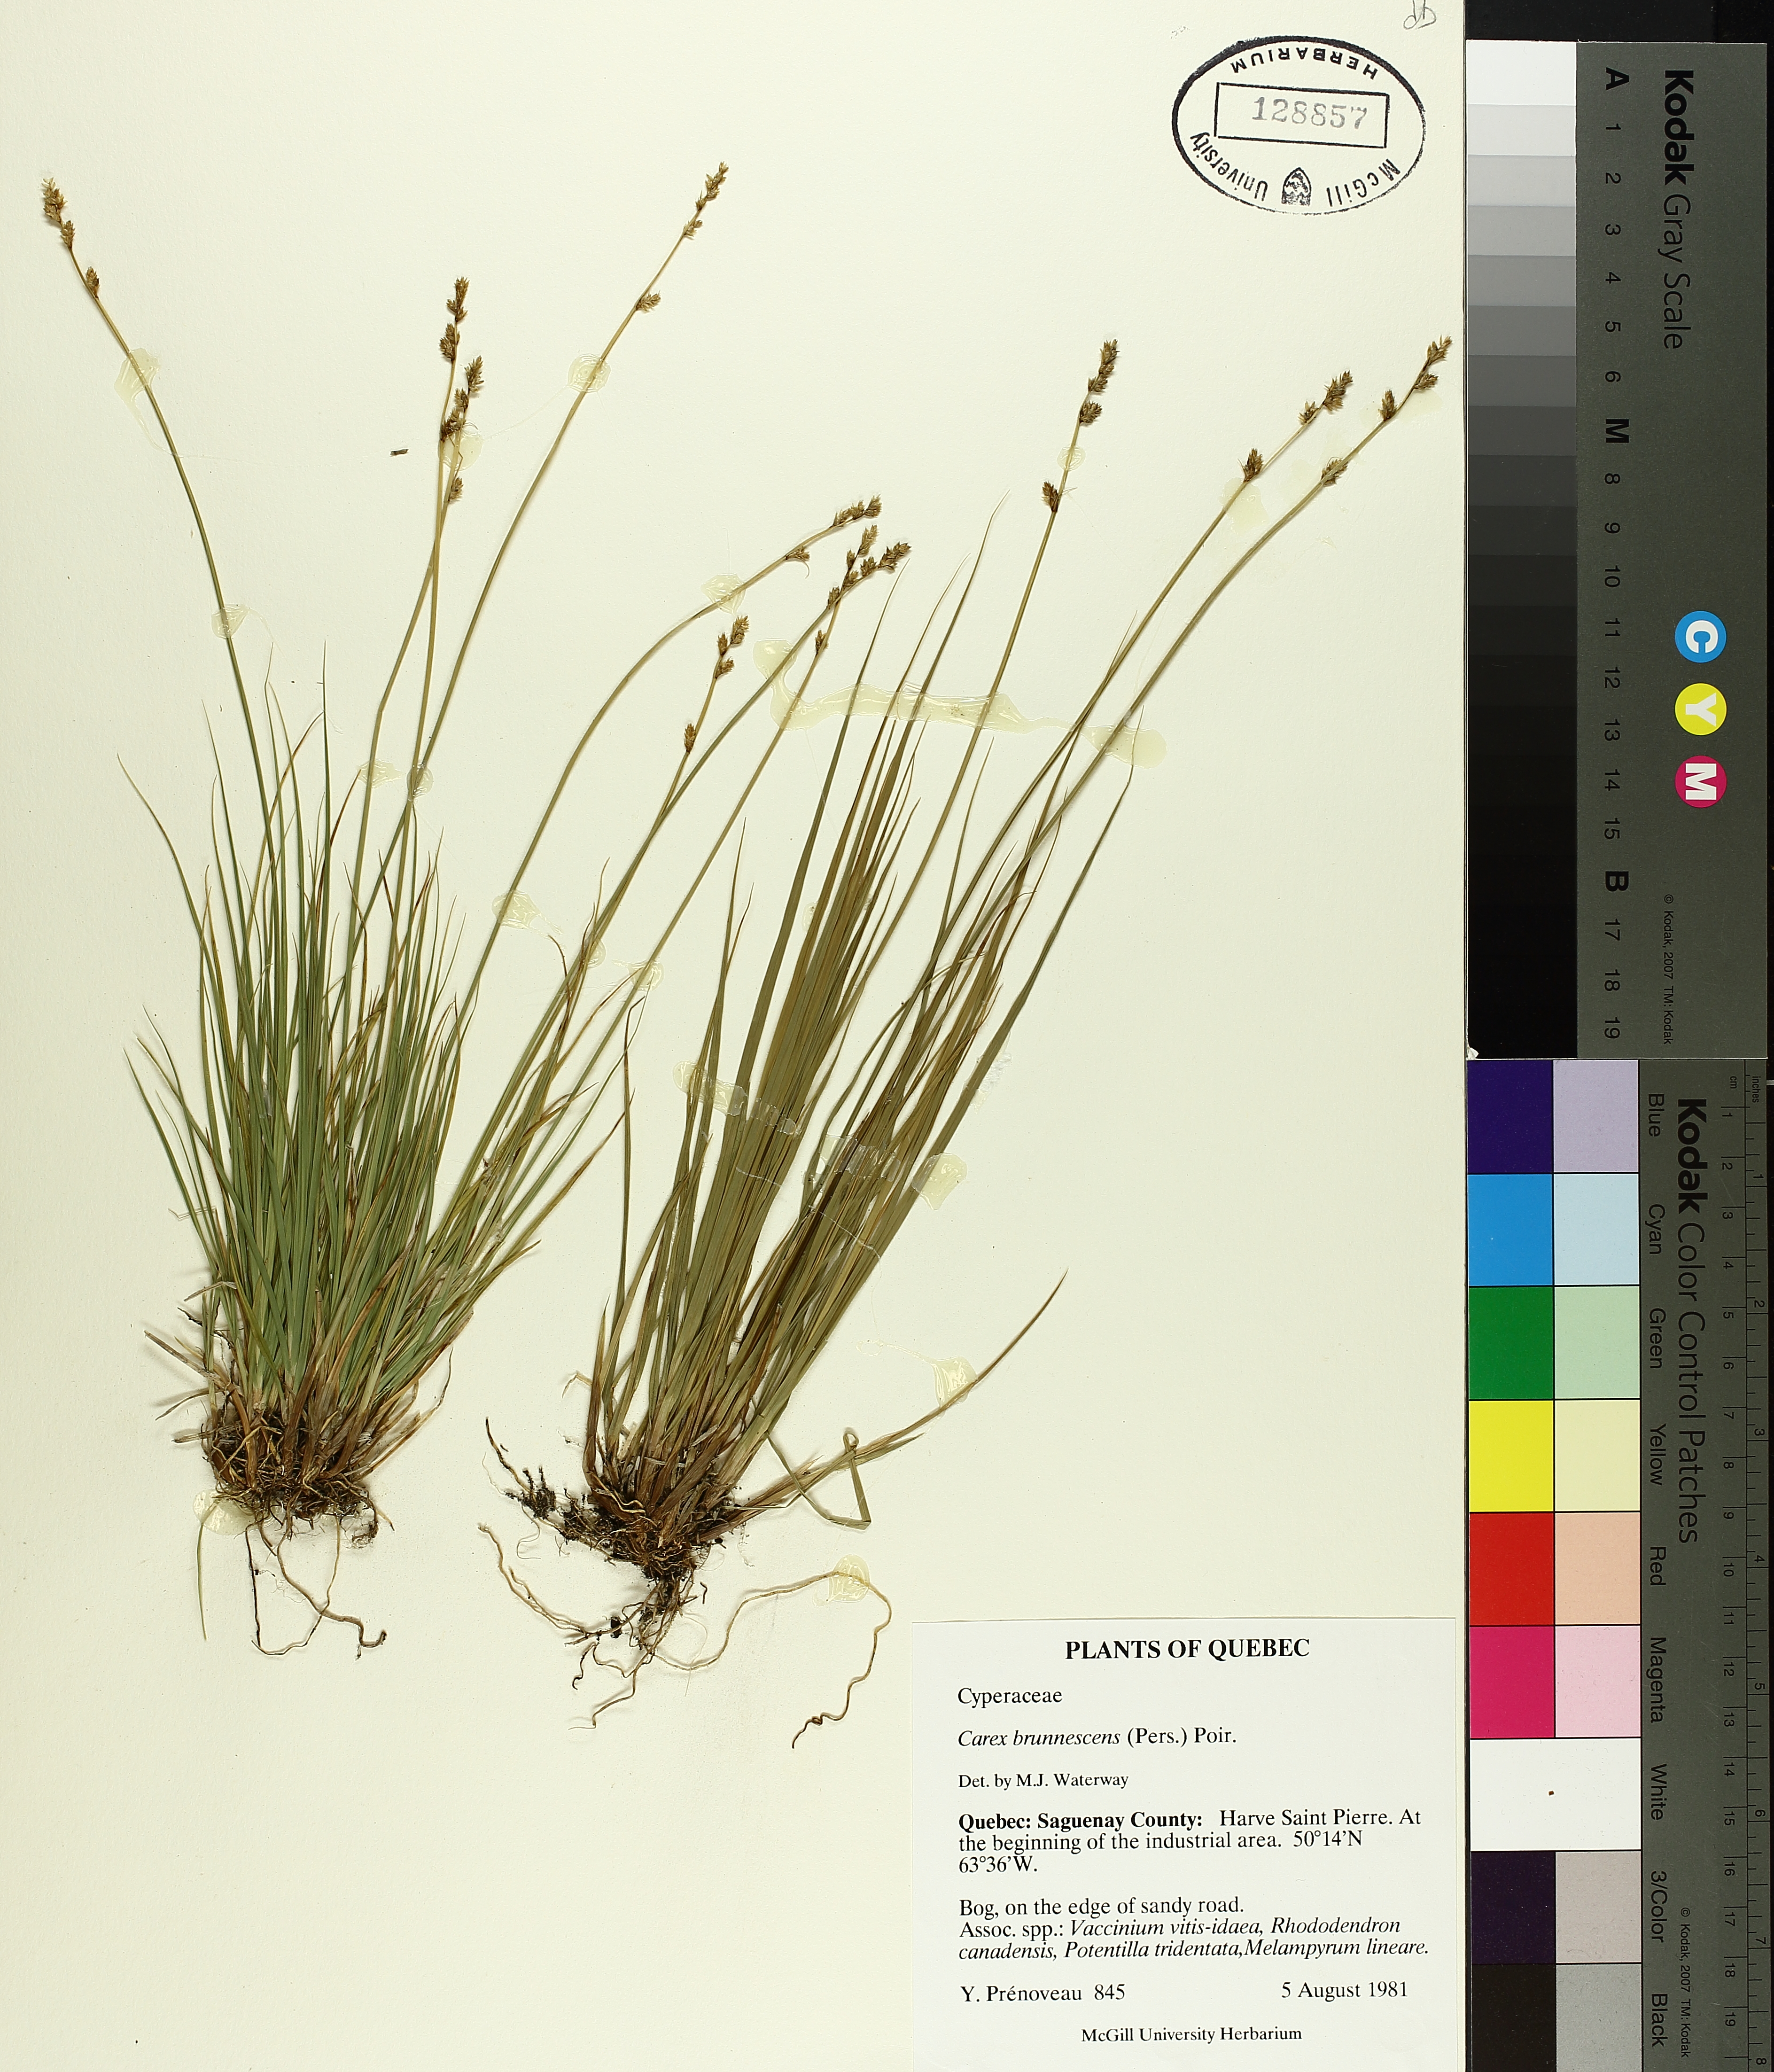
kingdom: Plantae
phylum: Tracheophyta
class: Liliopsida
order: Poales
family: Cyperaceae
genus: Carex
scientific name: Carex brunnescens
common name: Brown sedge
